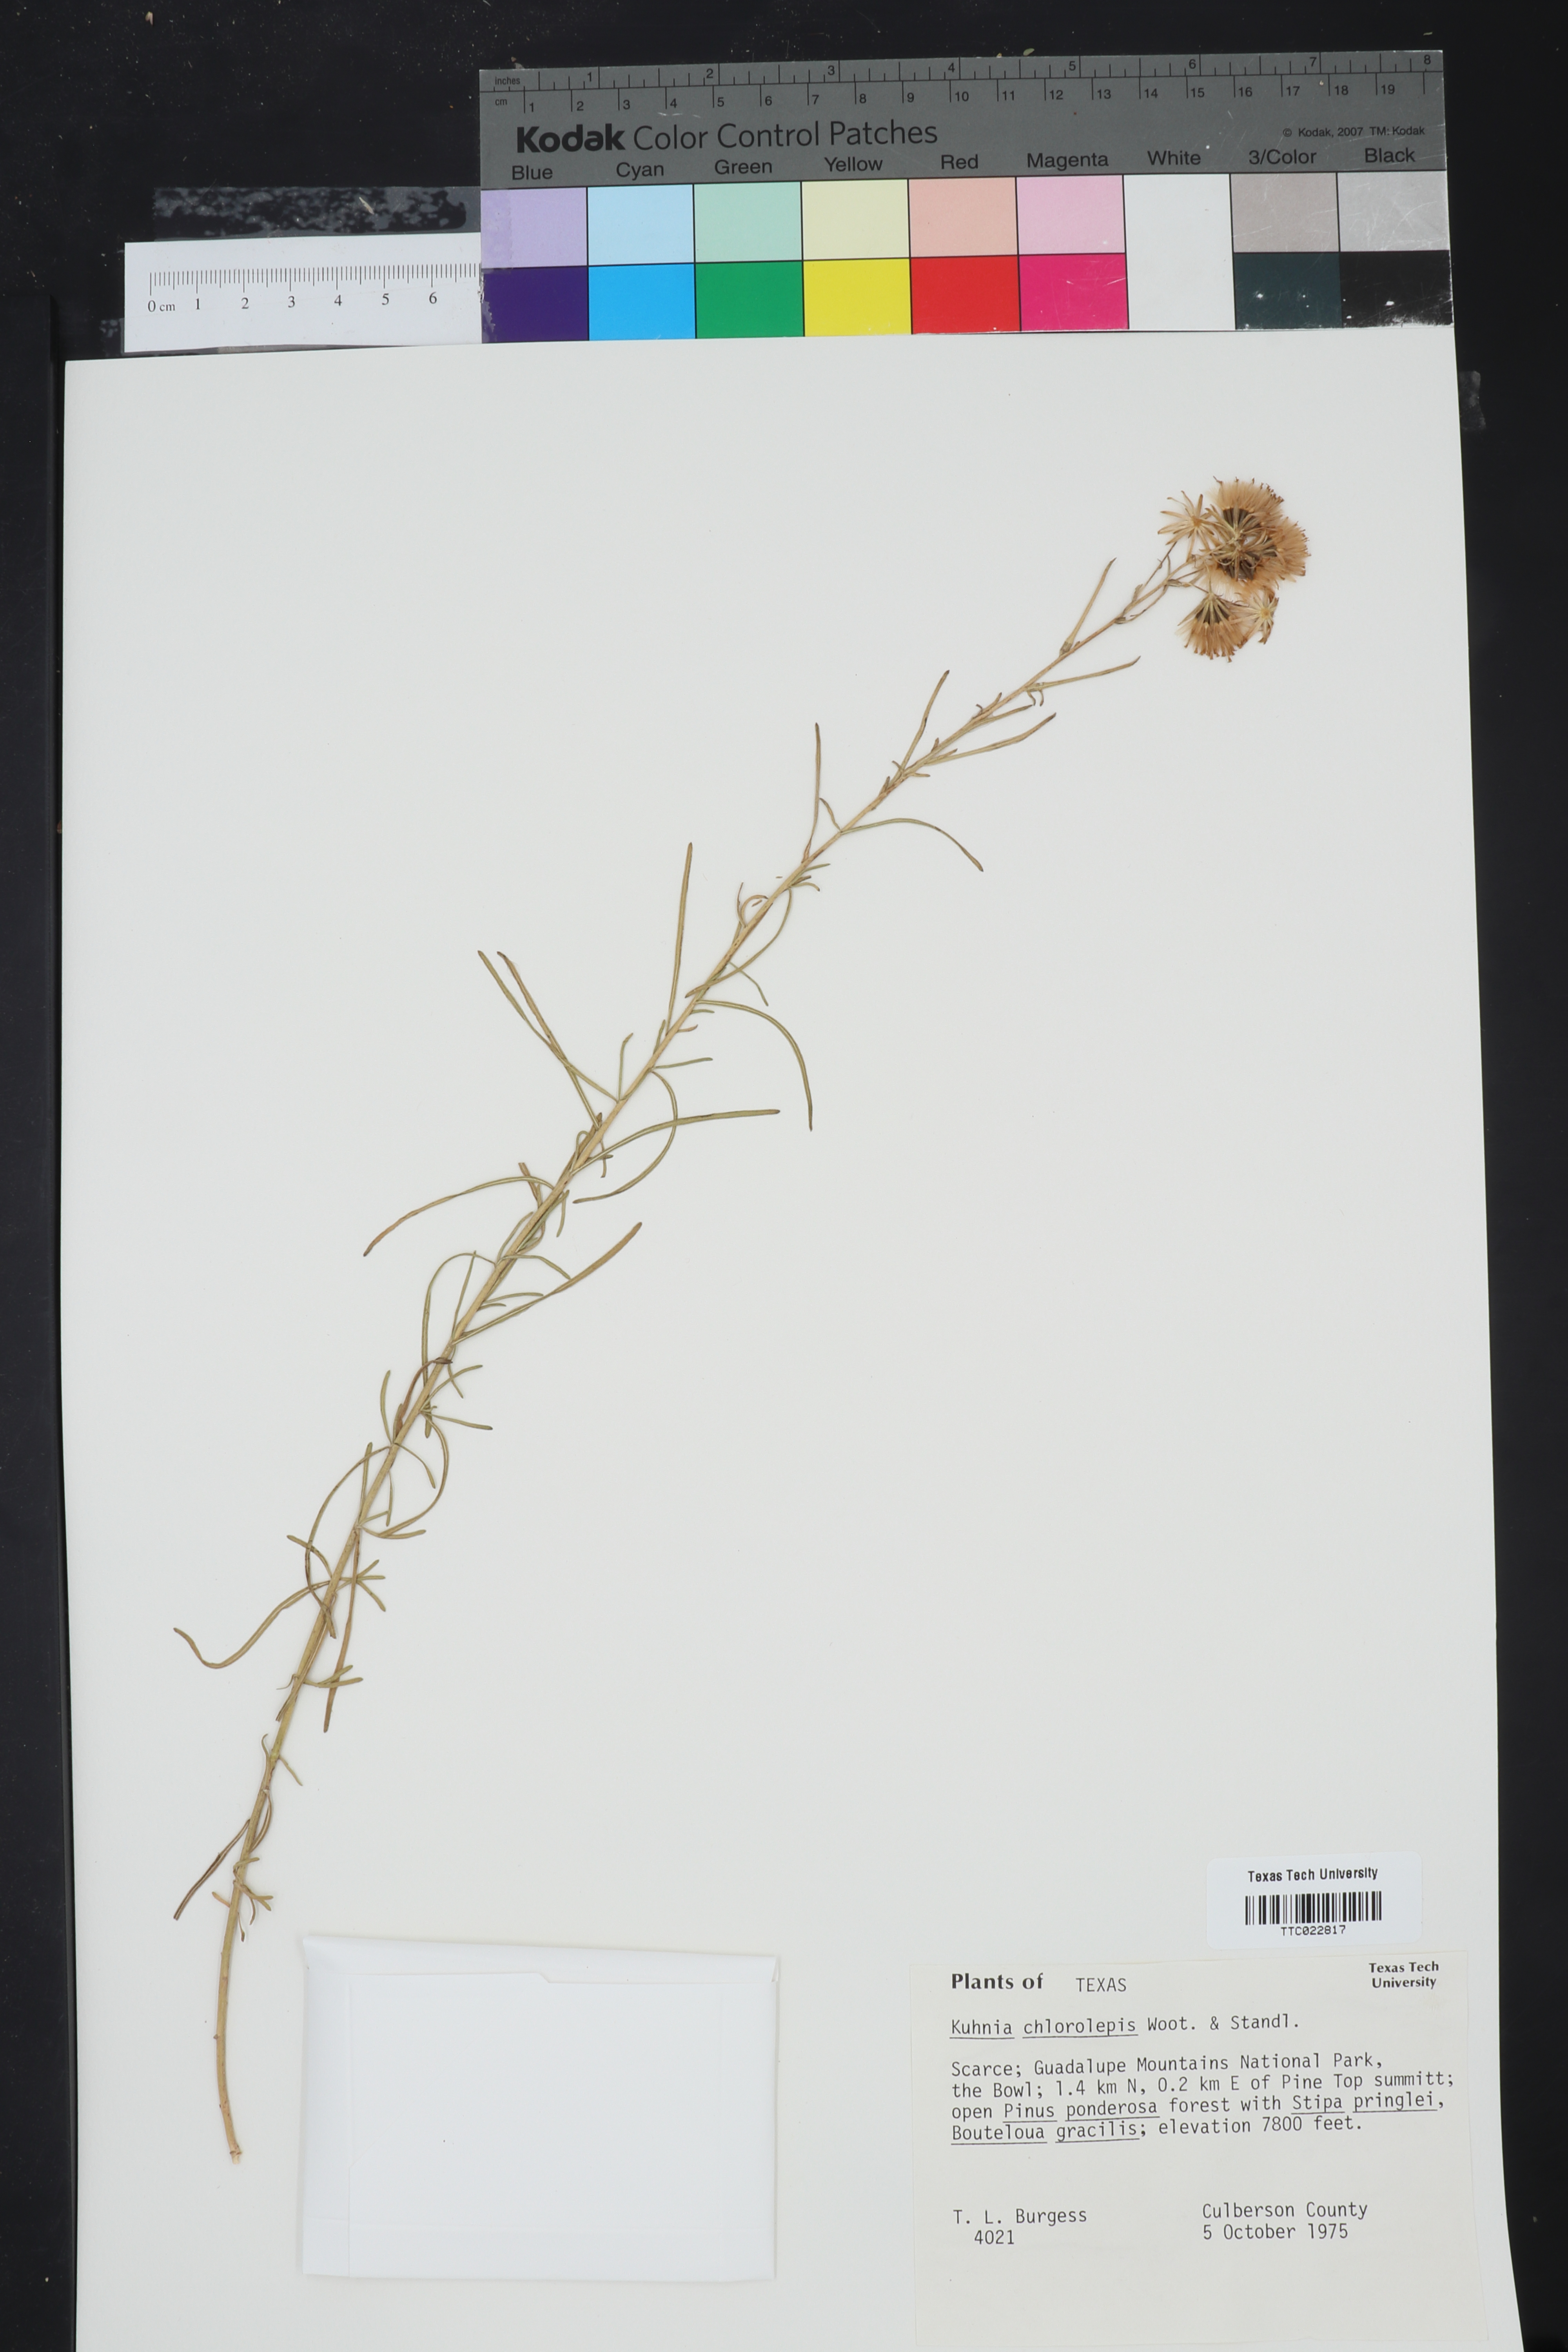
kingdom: Plantae
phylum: Tracheophyta
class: Magnoliopsida
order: Asterales
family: Asteraceae
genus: Brickellia
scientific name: Brickellia leptophylla
